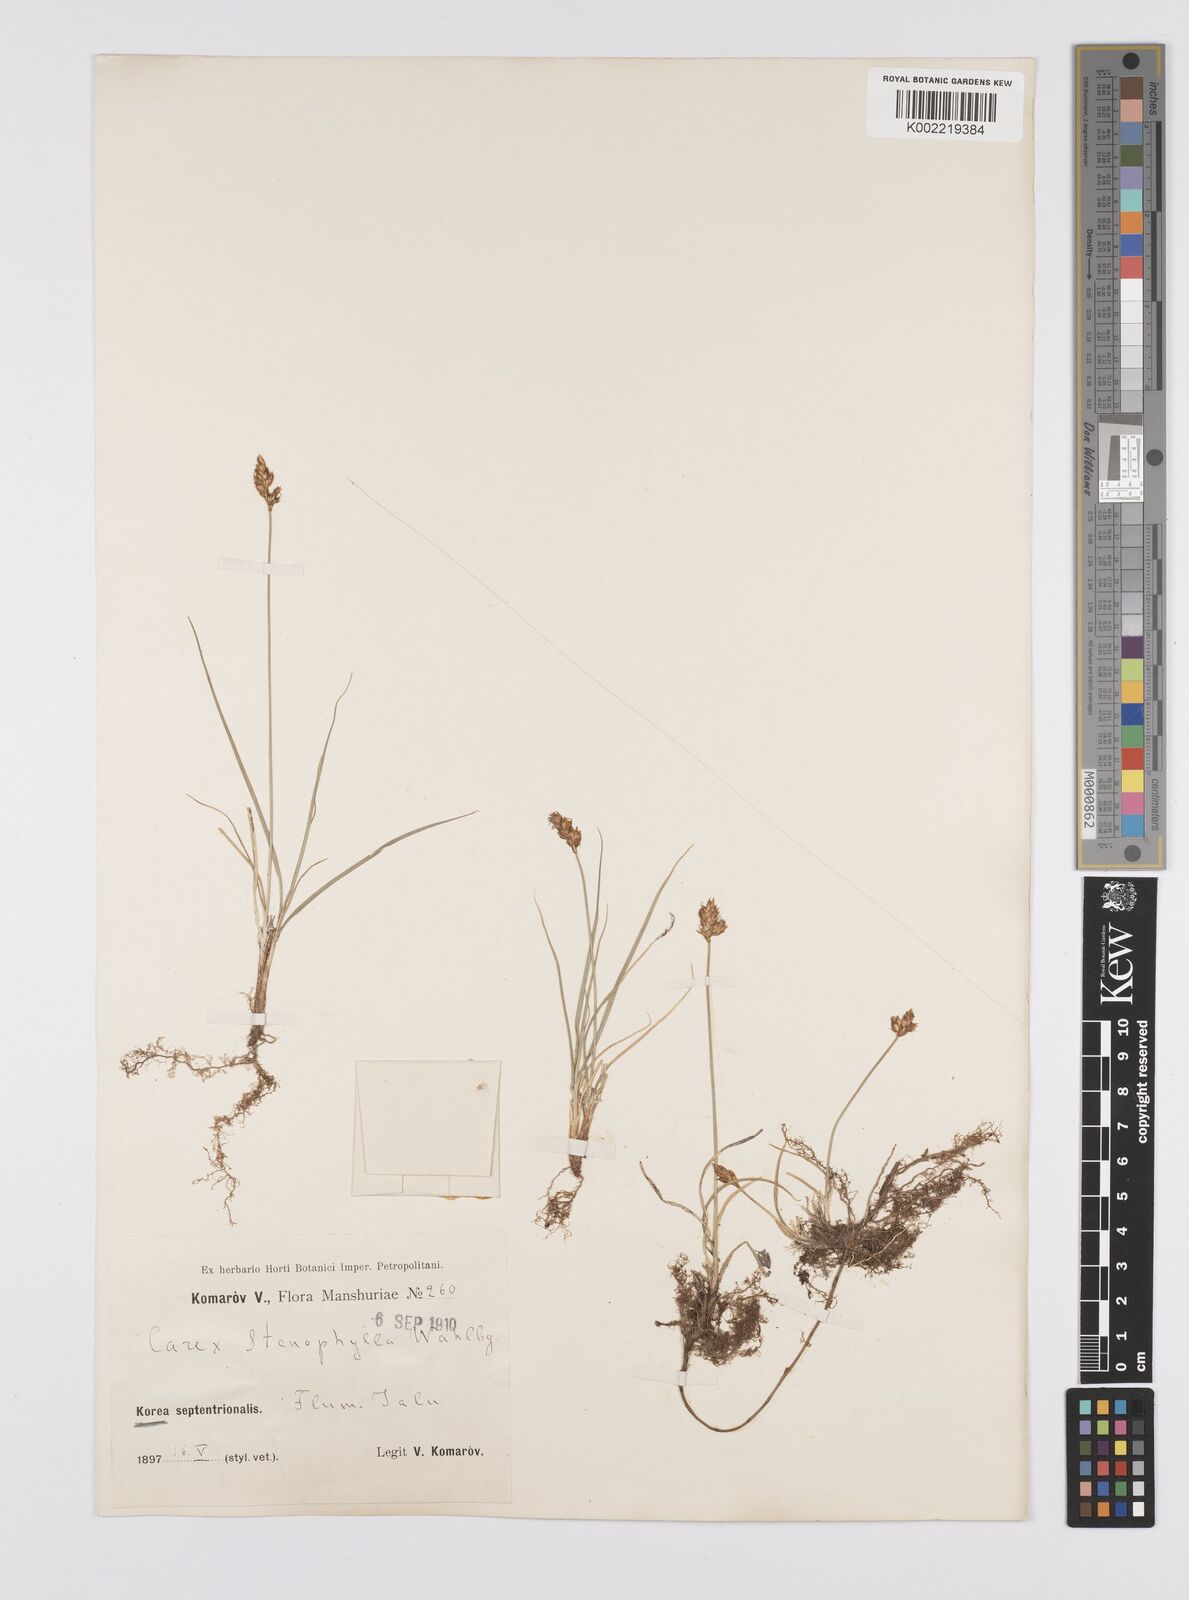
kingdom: Plantae
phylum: Tracheophyta
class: Liliopsida
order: Poales
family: Cyperaceae
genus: Carex
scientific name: Carex stenophylla
